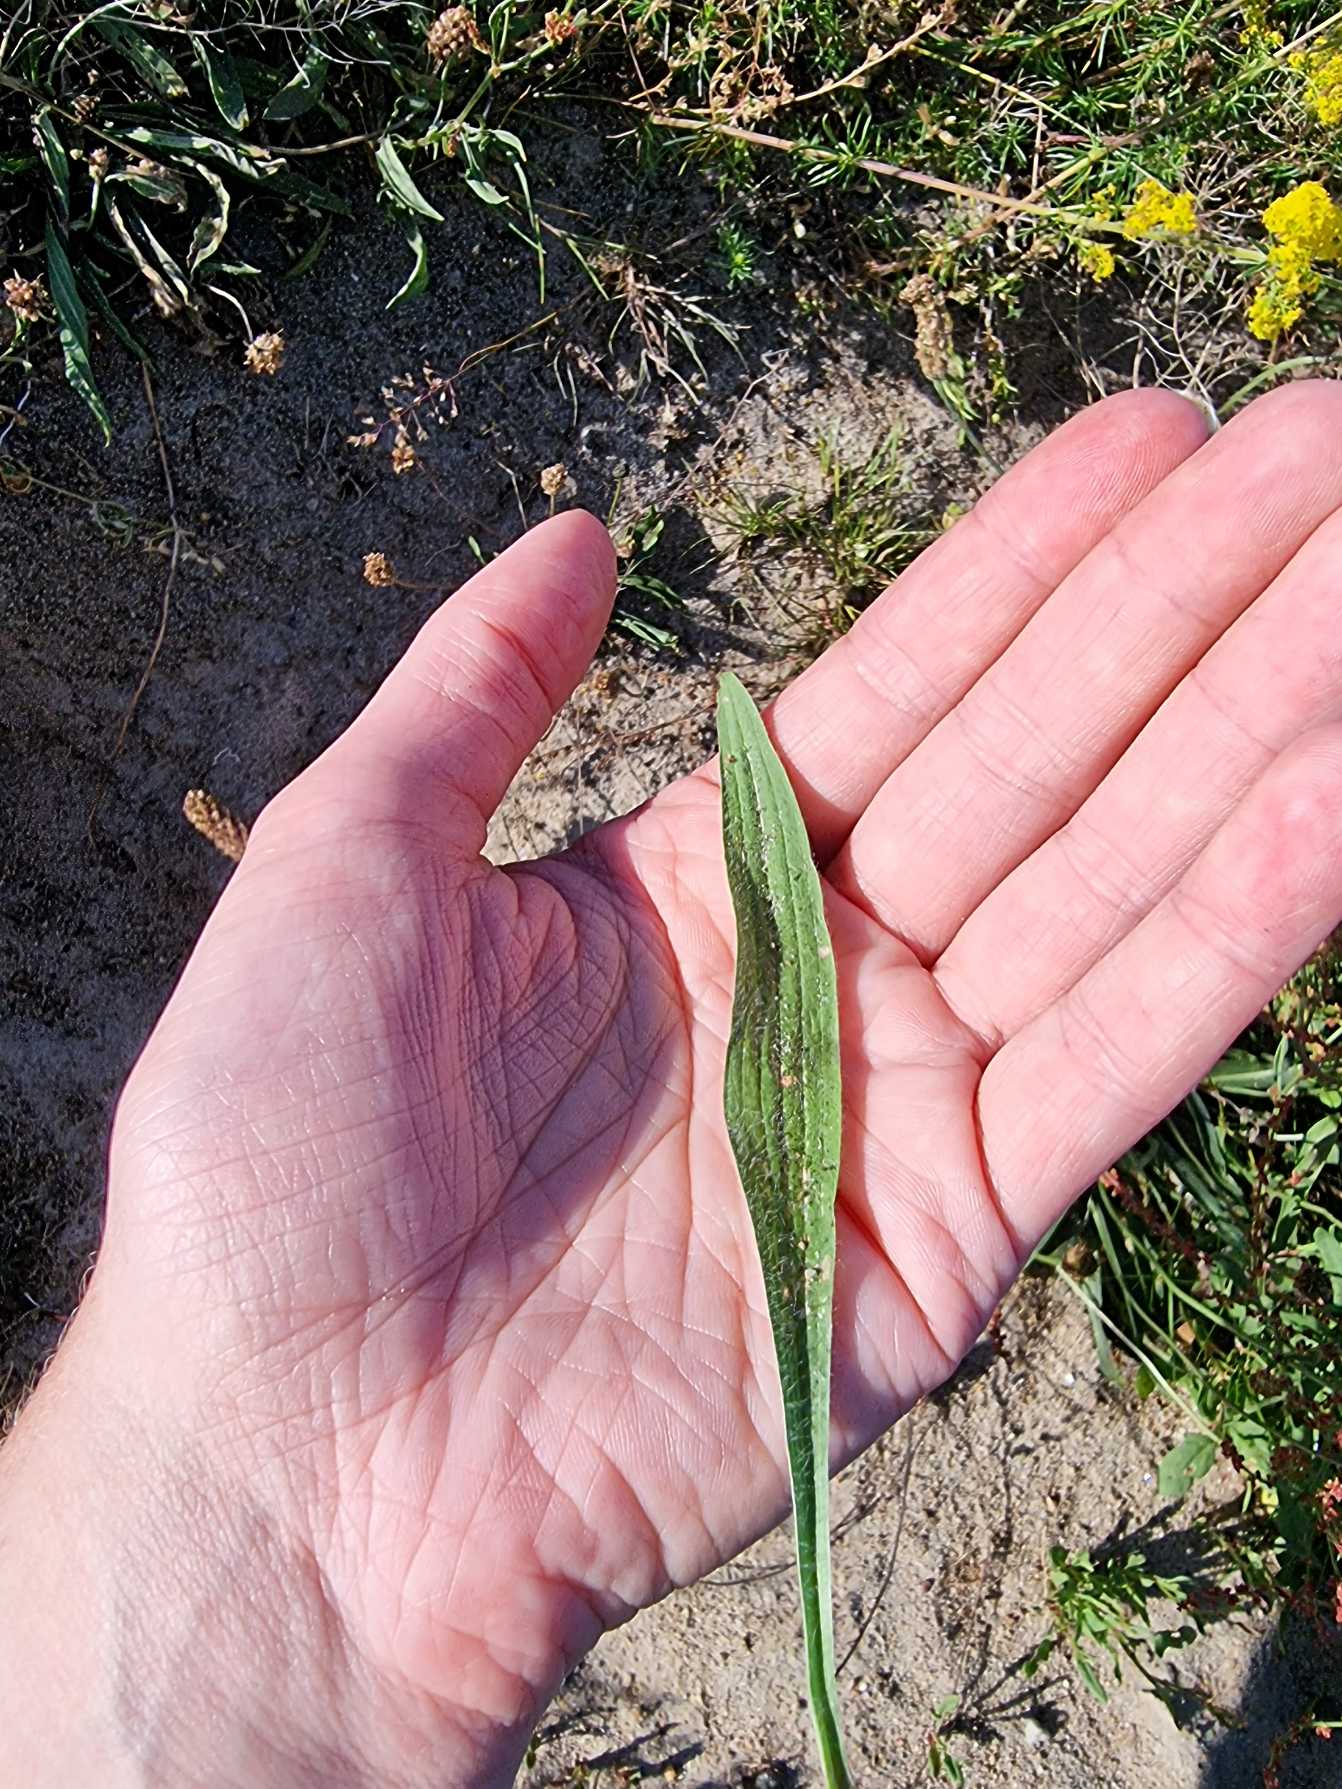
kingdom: Plantae
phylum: Tracheophyta
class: Magnoliopsida
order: Lamiales
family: Plantaginaceae
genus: Plantago
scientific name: Plantago lanceolata
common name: Lancet-vejbred
